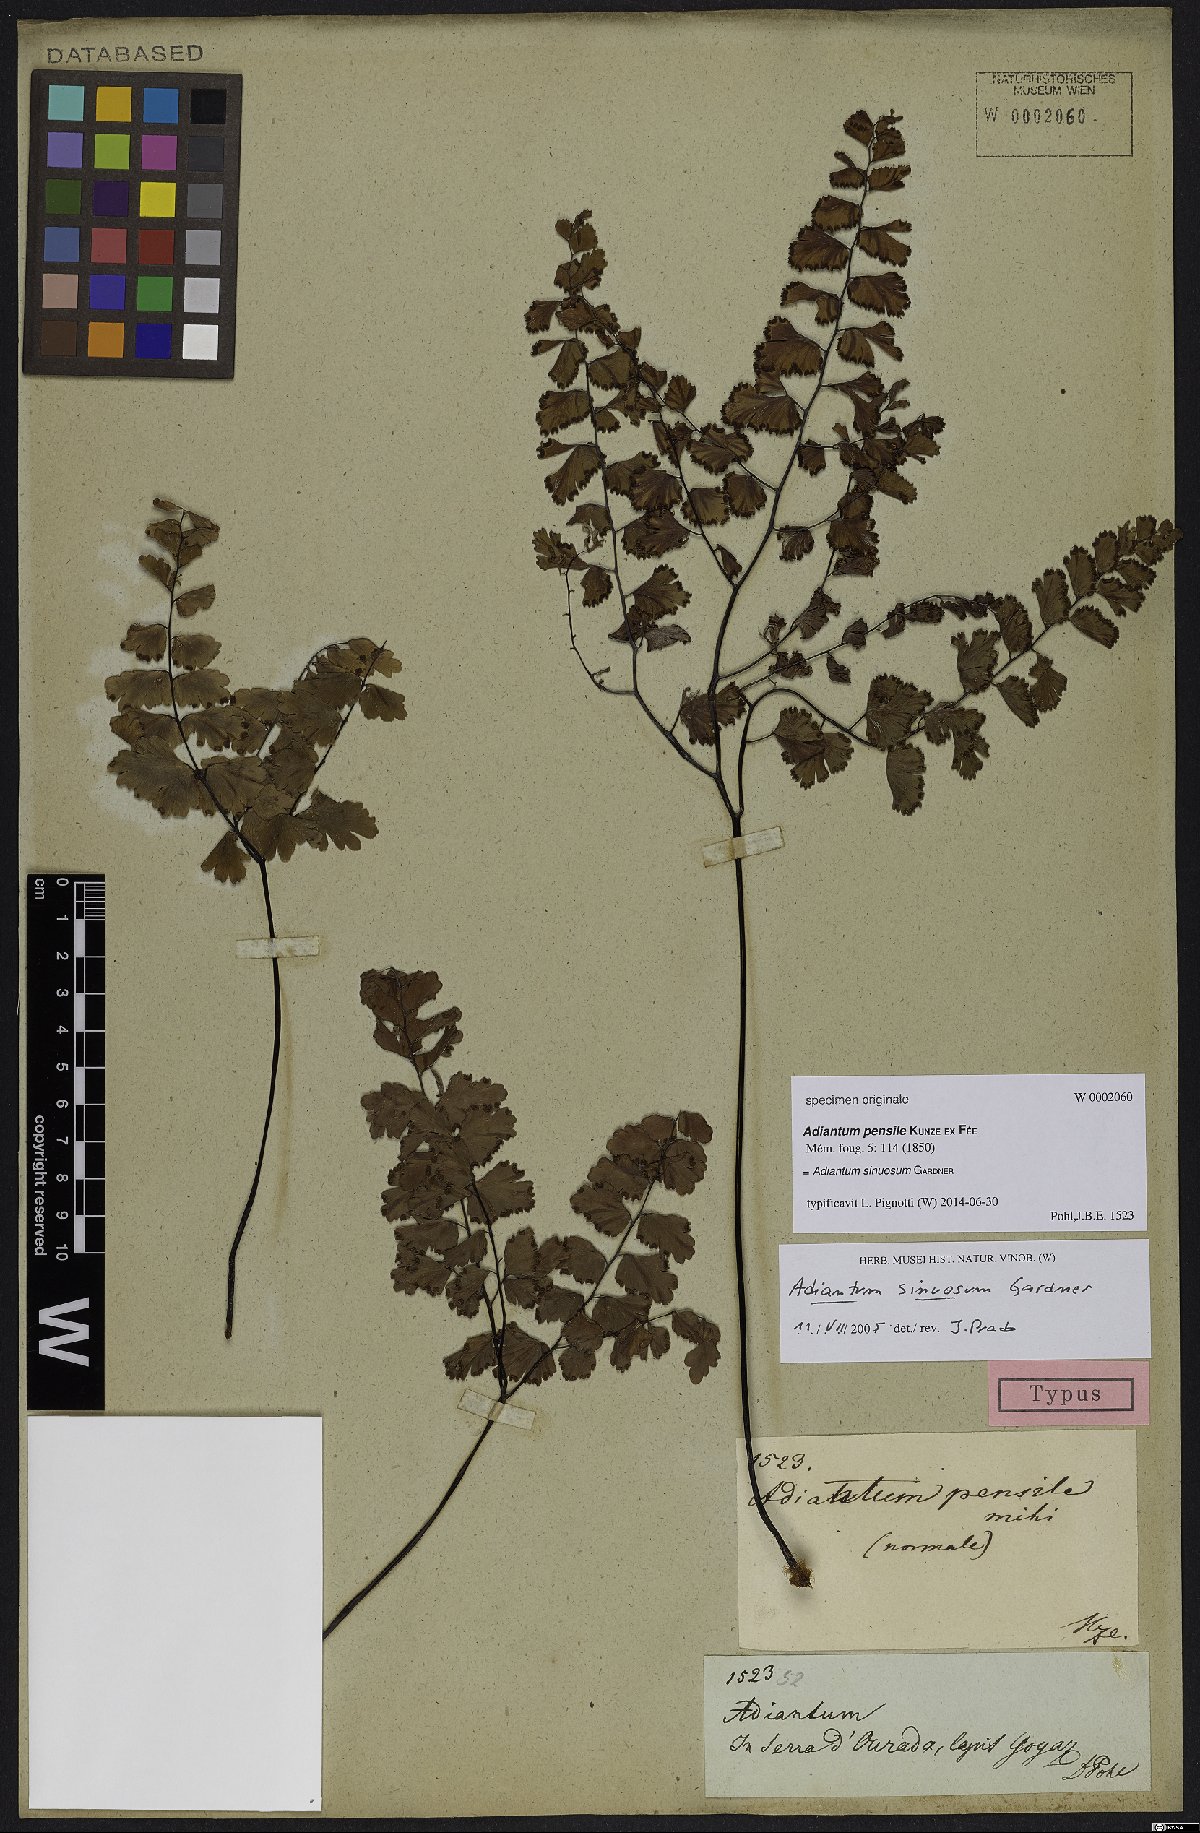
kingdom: Plantae
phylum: Tracheophyta
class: Polypodiopsida
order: Polypodiales
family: Pteridaceae
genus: Adiantum
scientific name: Adiantum sinuosum
